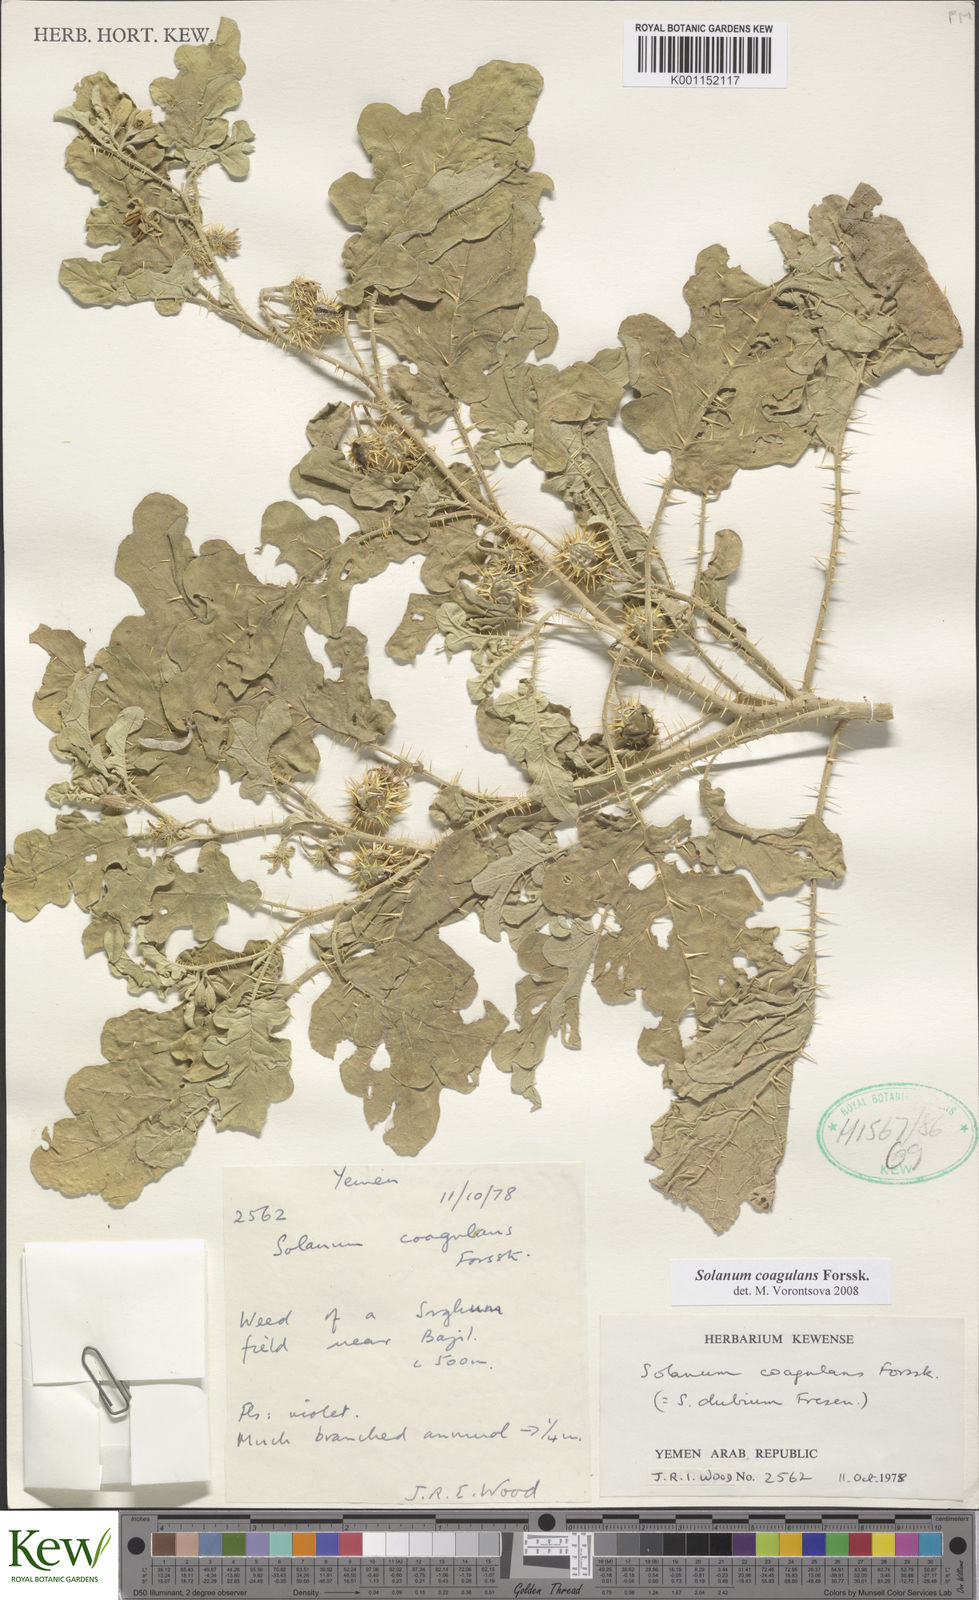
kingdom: Plantae
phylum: Tracheophyta
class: Magnoliopsida
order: Solanales
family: Solanaceae
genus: Solanum
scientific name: Solanum coagulans
